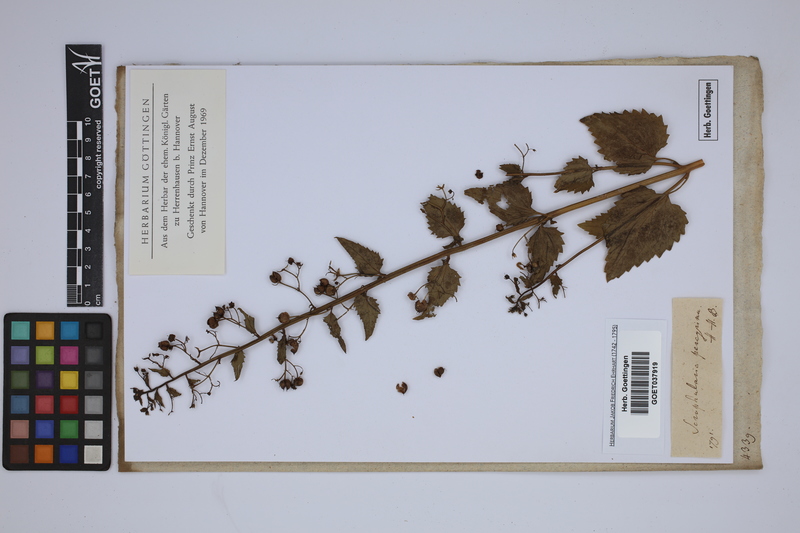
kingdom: Plantae
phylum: Tracheophyta
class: Magnoliopsida
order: Lamiales
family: Scrophulariaceae
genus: Scrophularia
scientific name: Scrophularia peregrina
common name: Mediterranean figwort
